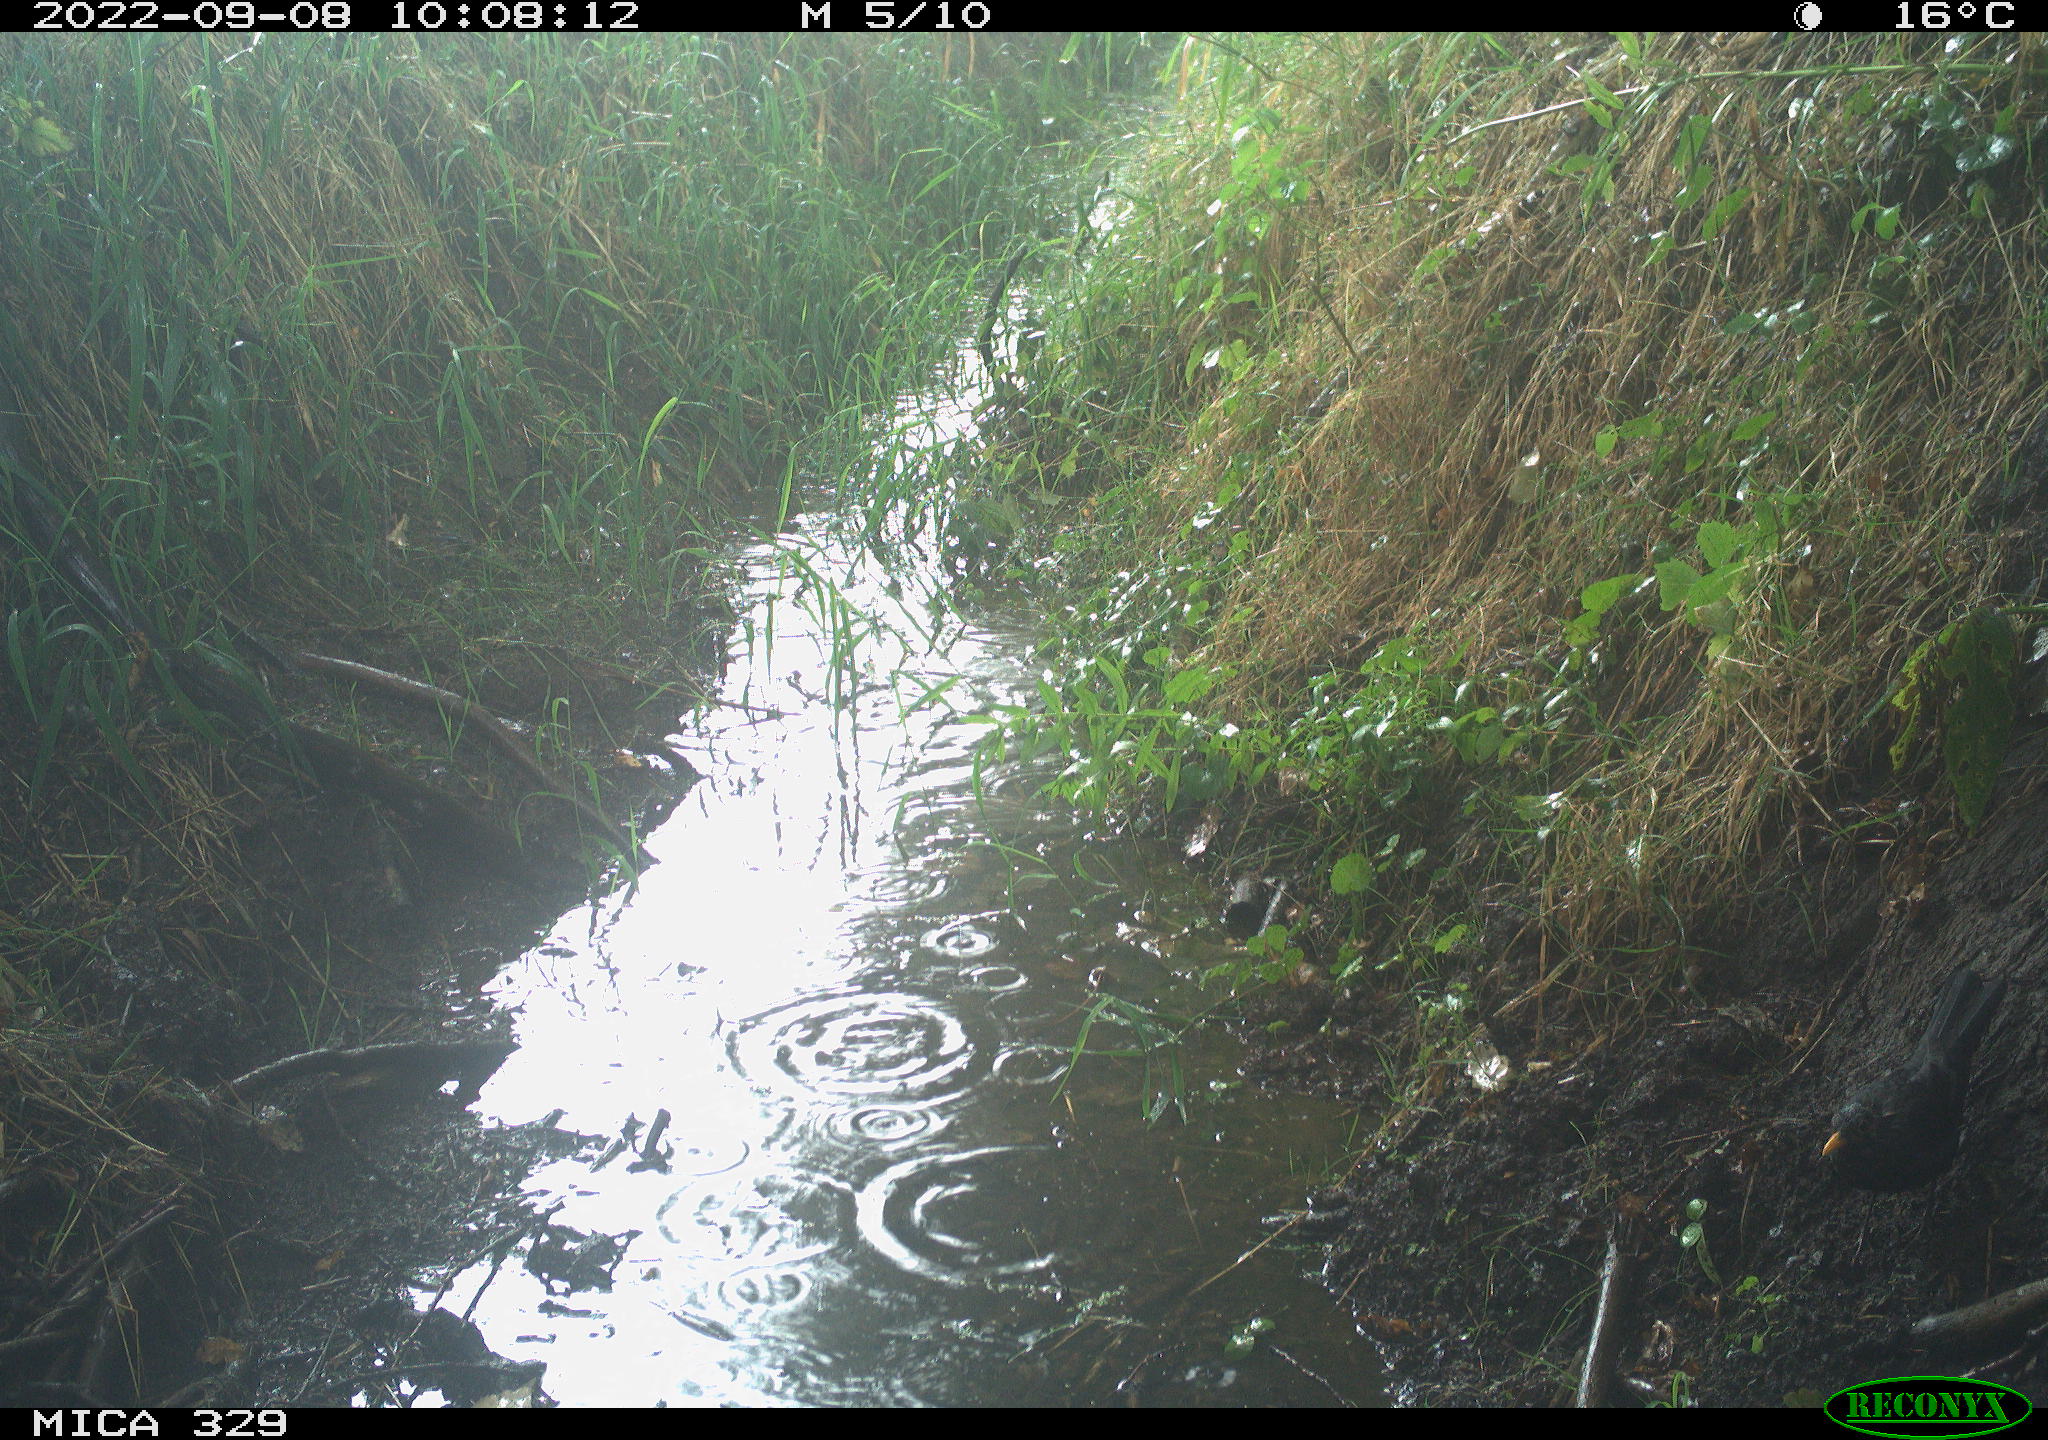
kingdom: Animalia
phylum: Chordata
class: Aves
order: Passeriformes
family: Turdidae
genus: Turdus
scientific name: Turdus merula
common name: Common blackbird
